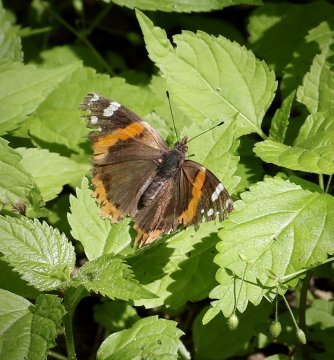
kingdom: Animalia
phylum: Arthropoda
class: Insecta
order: Lepidoptera
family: Nymphalidae
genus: Vanessa
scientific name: Vanessa atalanta
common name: Red Admiral
